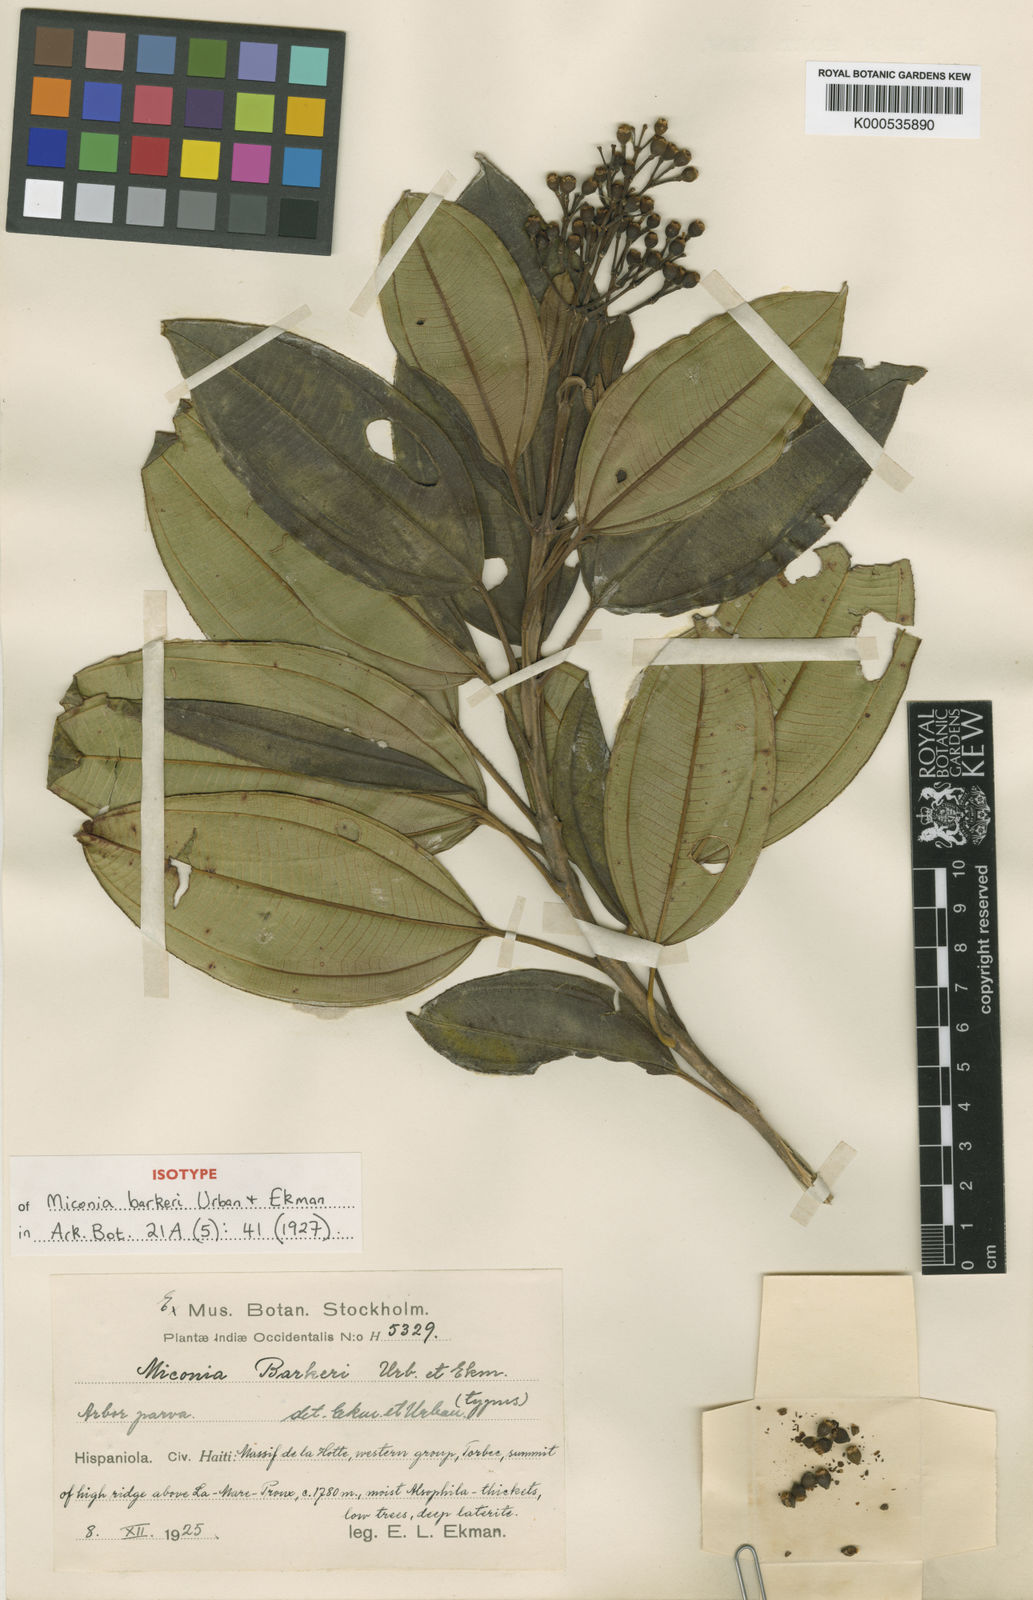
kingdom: Plantae
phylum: Tracheophyta
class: Magnoliopsida
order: Myrtales
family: Melastomataceae
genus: Miconia
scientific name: Miconia barkeri
